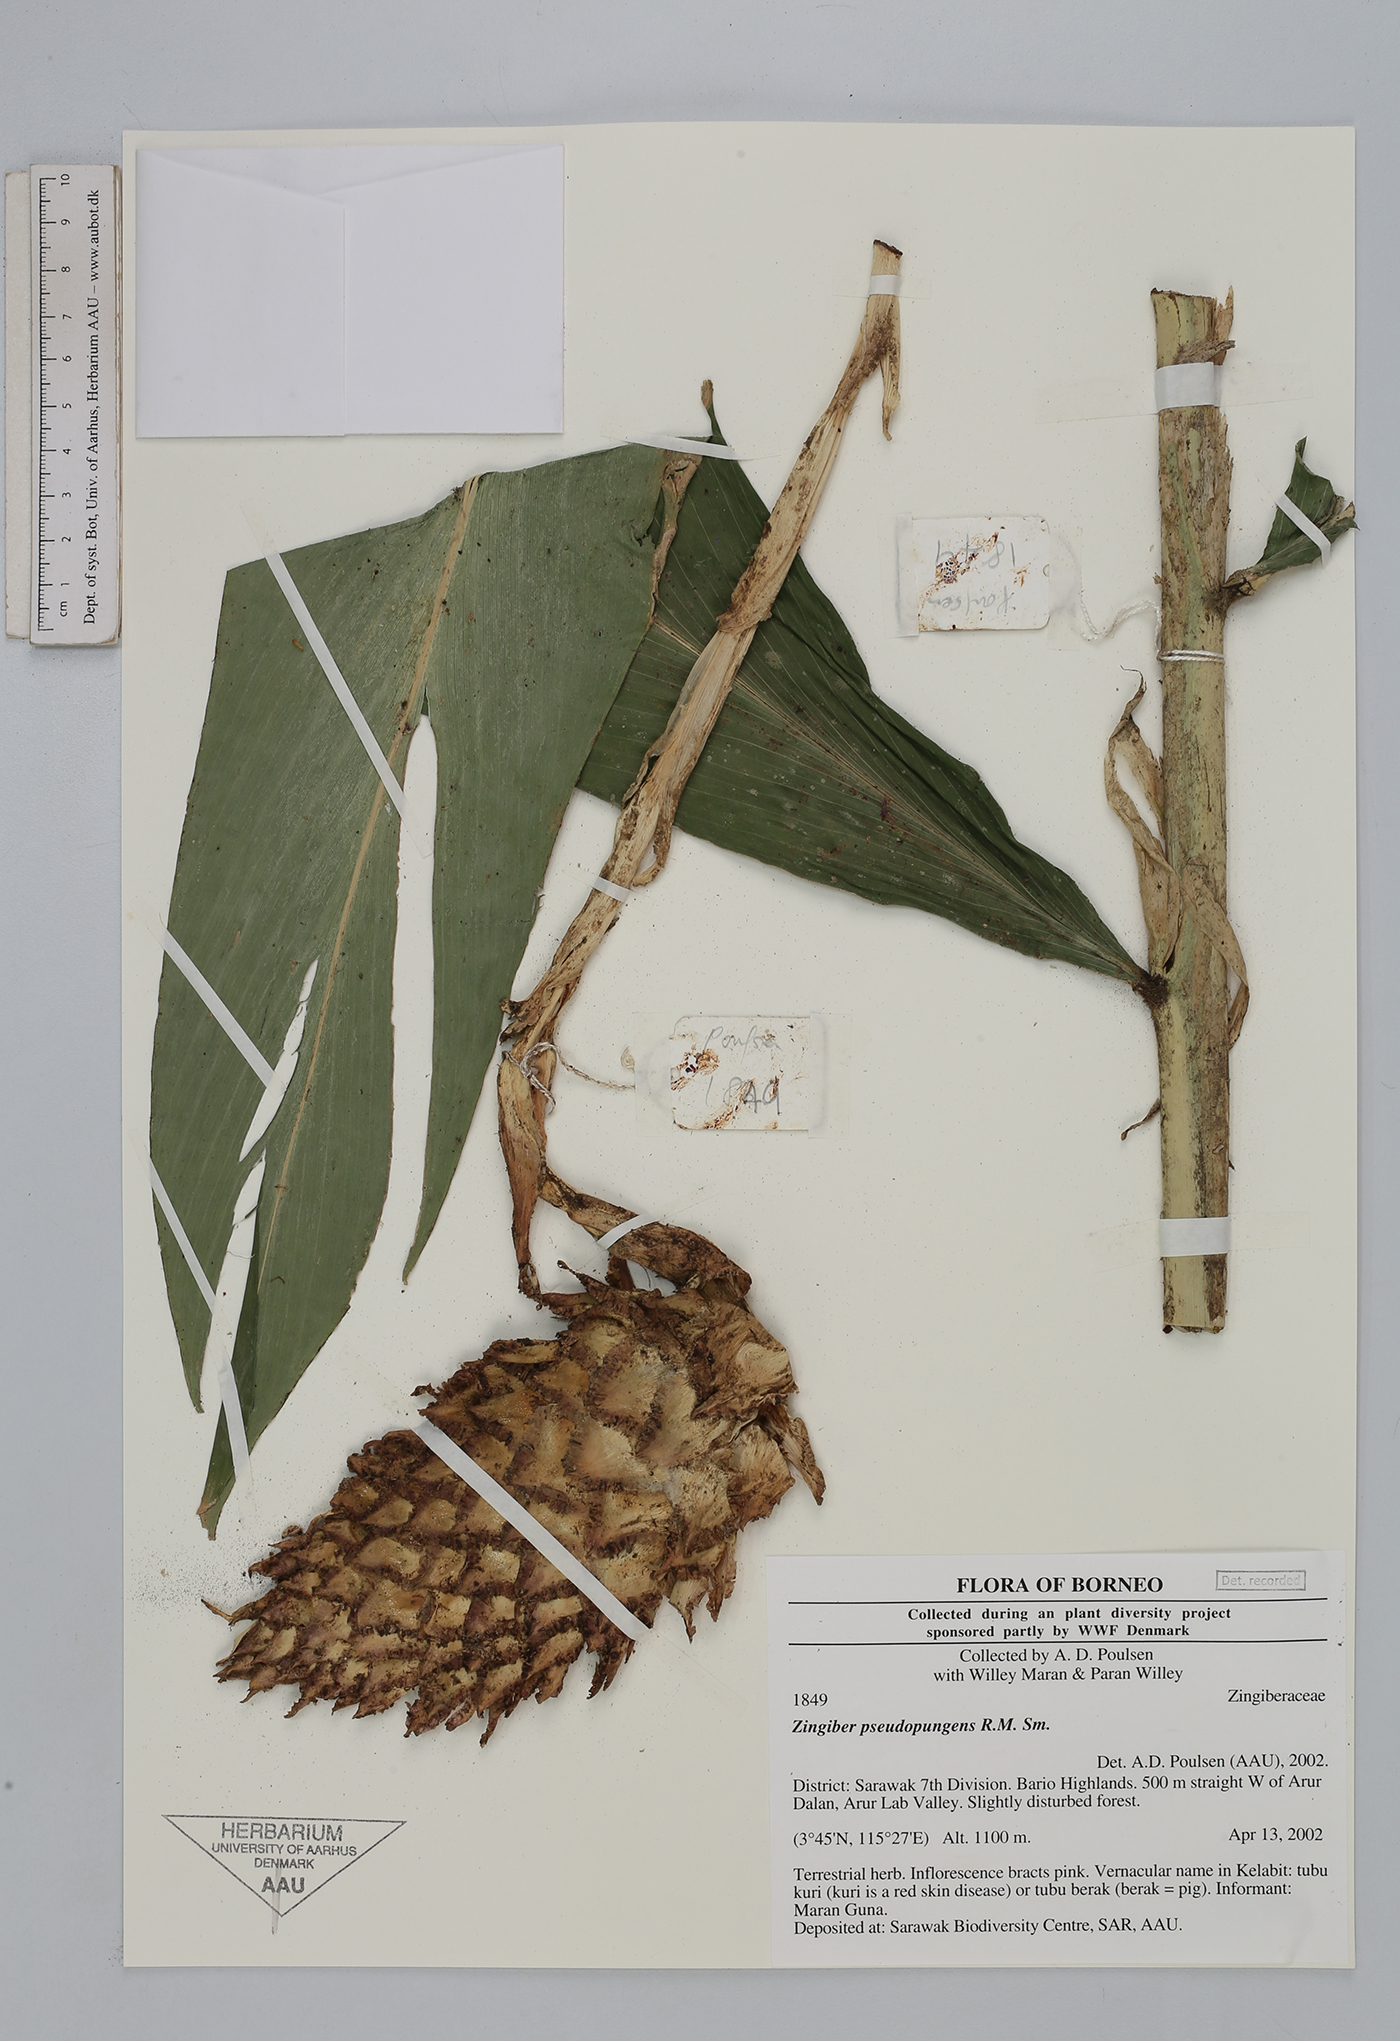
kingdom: Plantae
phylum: Tracheophyta
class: Liliopsida
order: Zingiberales
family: Zingiberaceae
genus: Zingiber
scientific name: Zingiber pseudopungens
